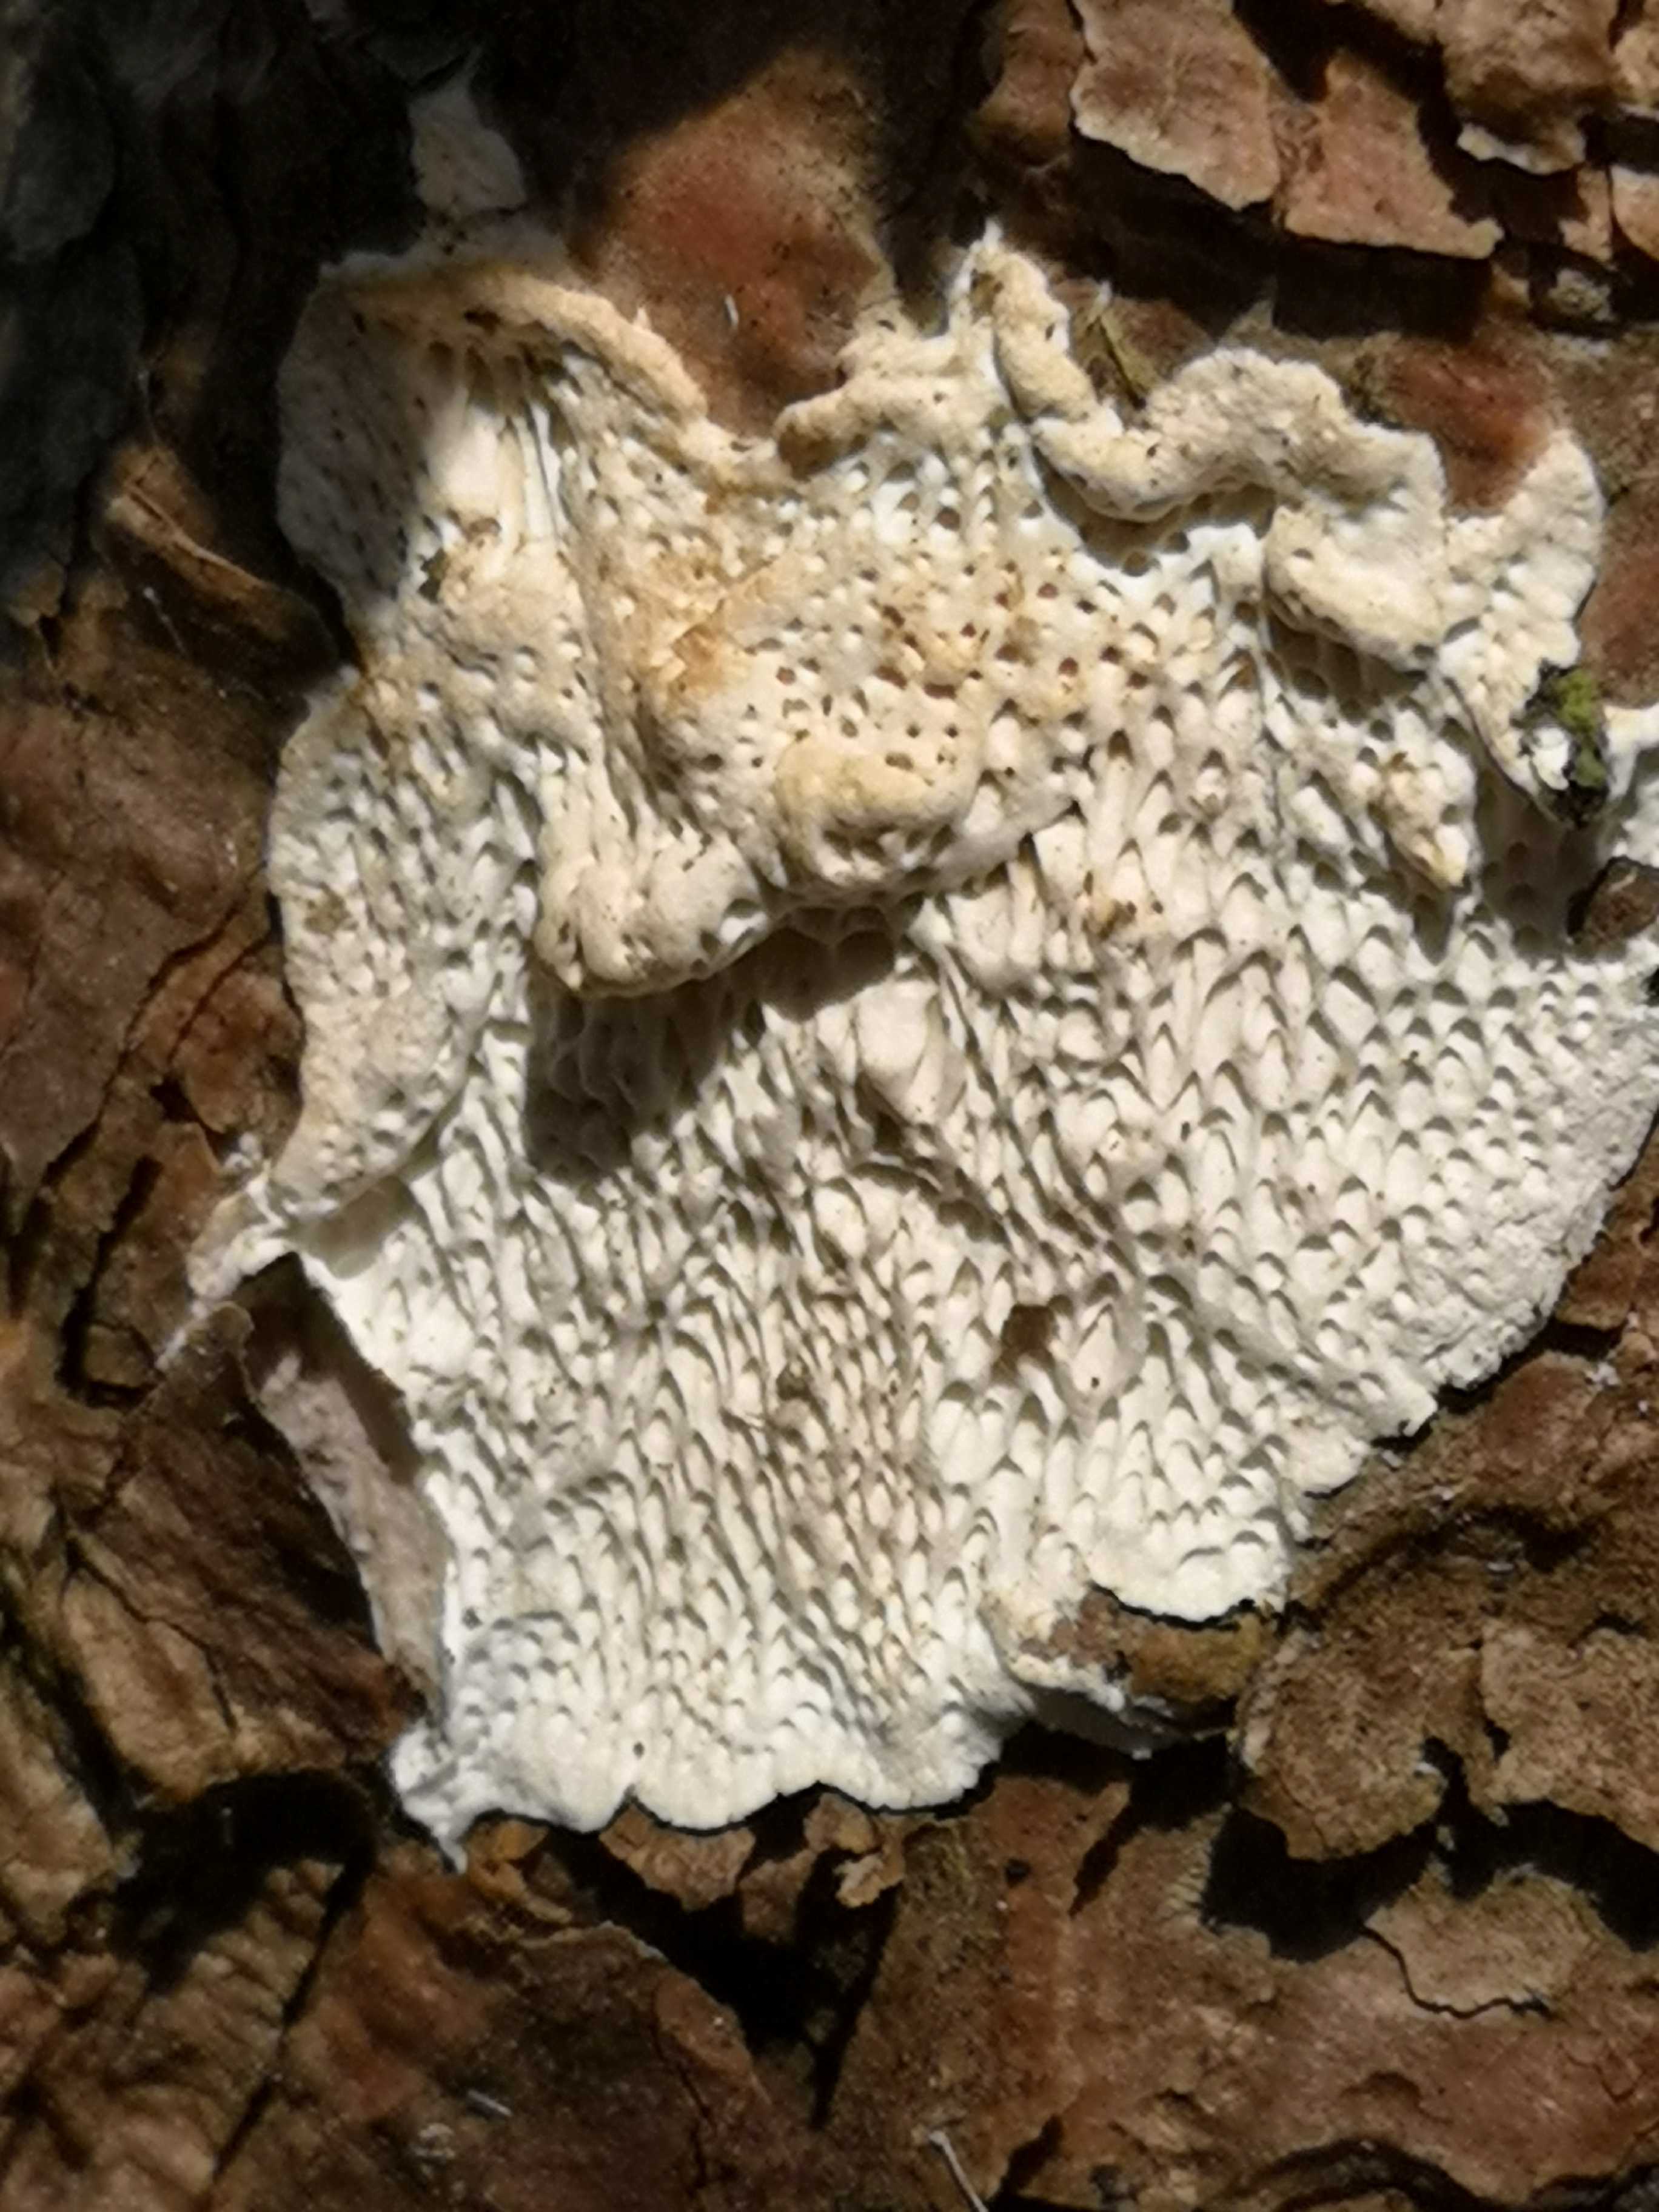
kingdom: Fungi
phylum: Basidiomycota
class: Agaricomycetes
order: Polyporales
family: Fomitopsidaceae
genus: Fomitopsis
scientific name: Fomitopsis
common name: fyrre-skiveporesvamp
